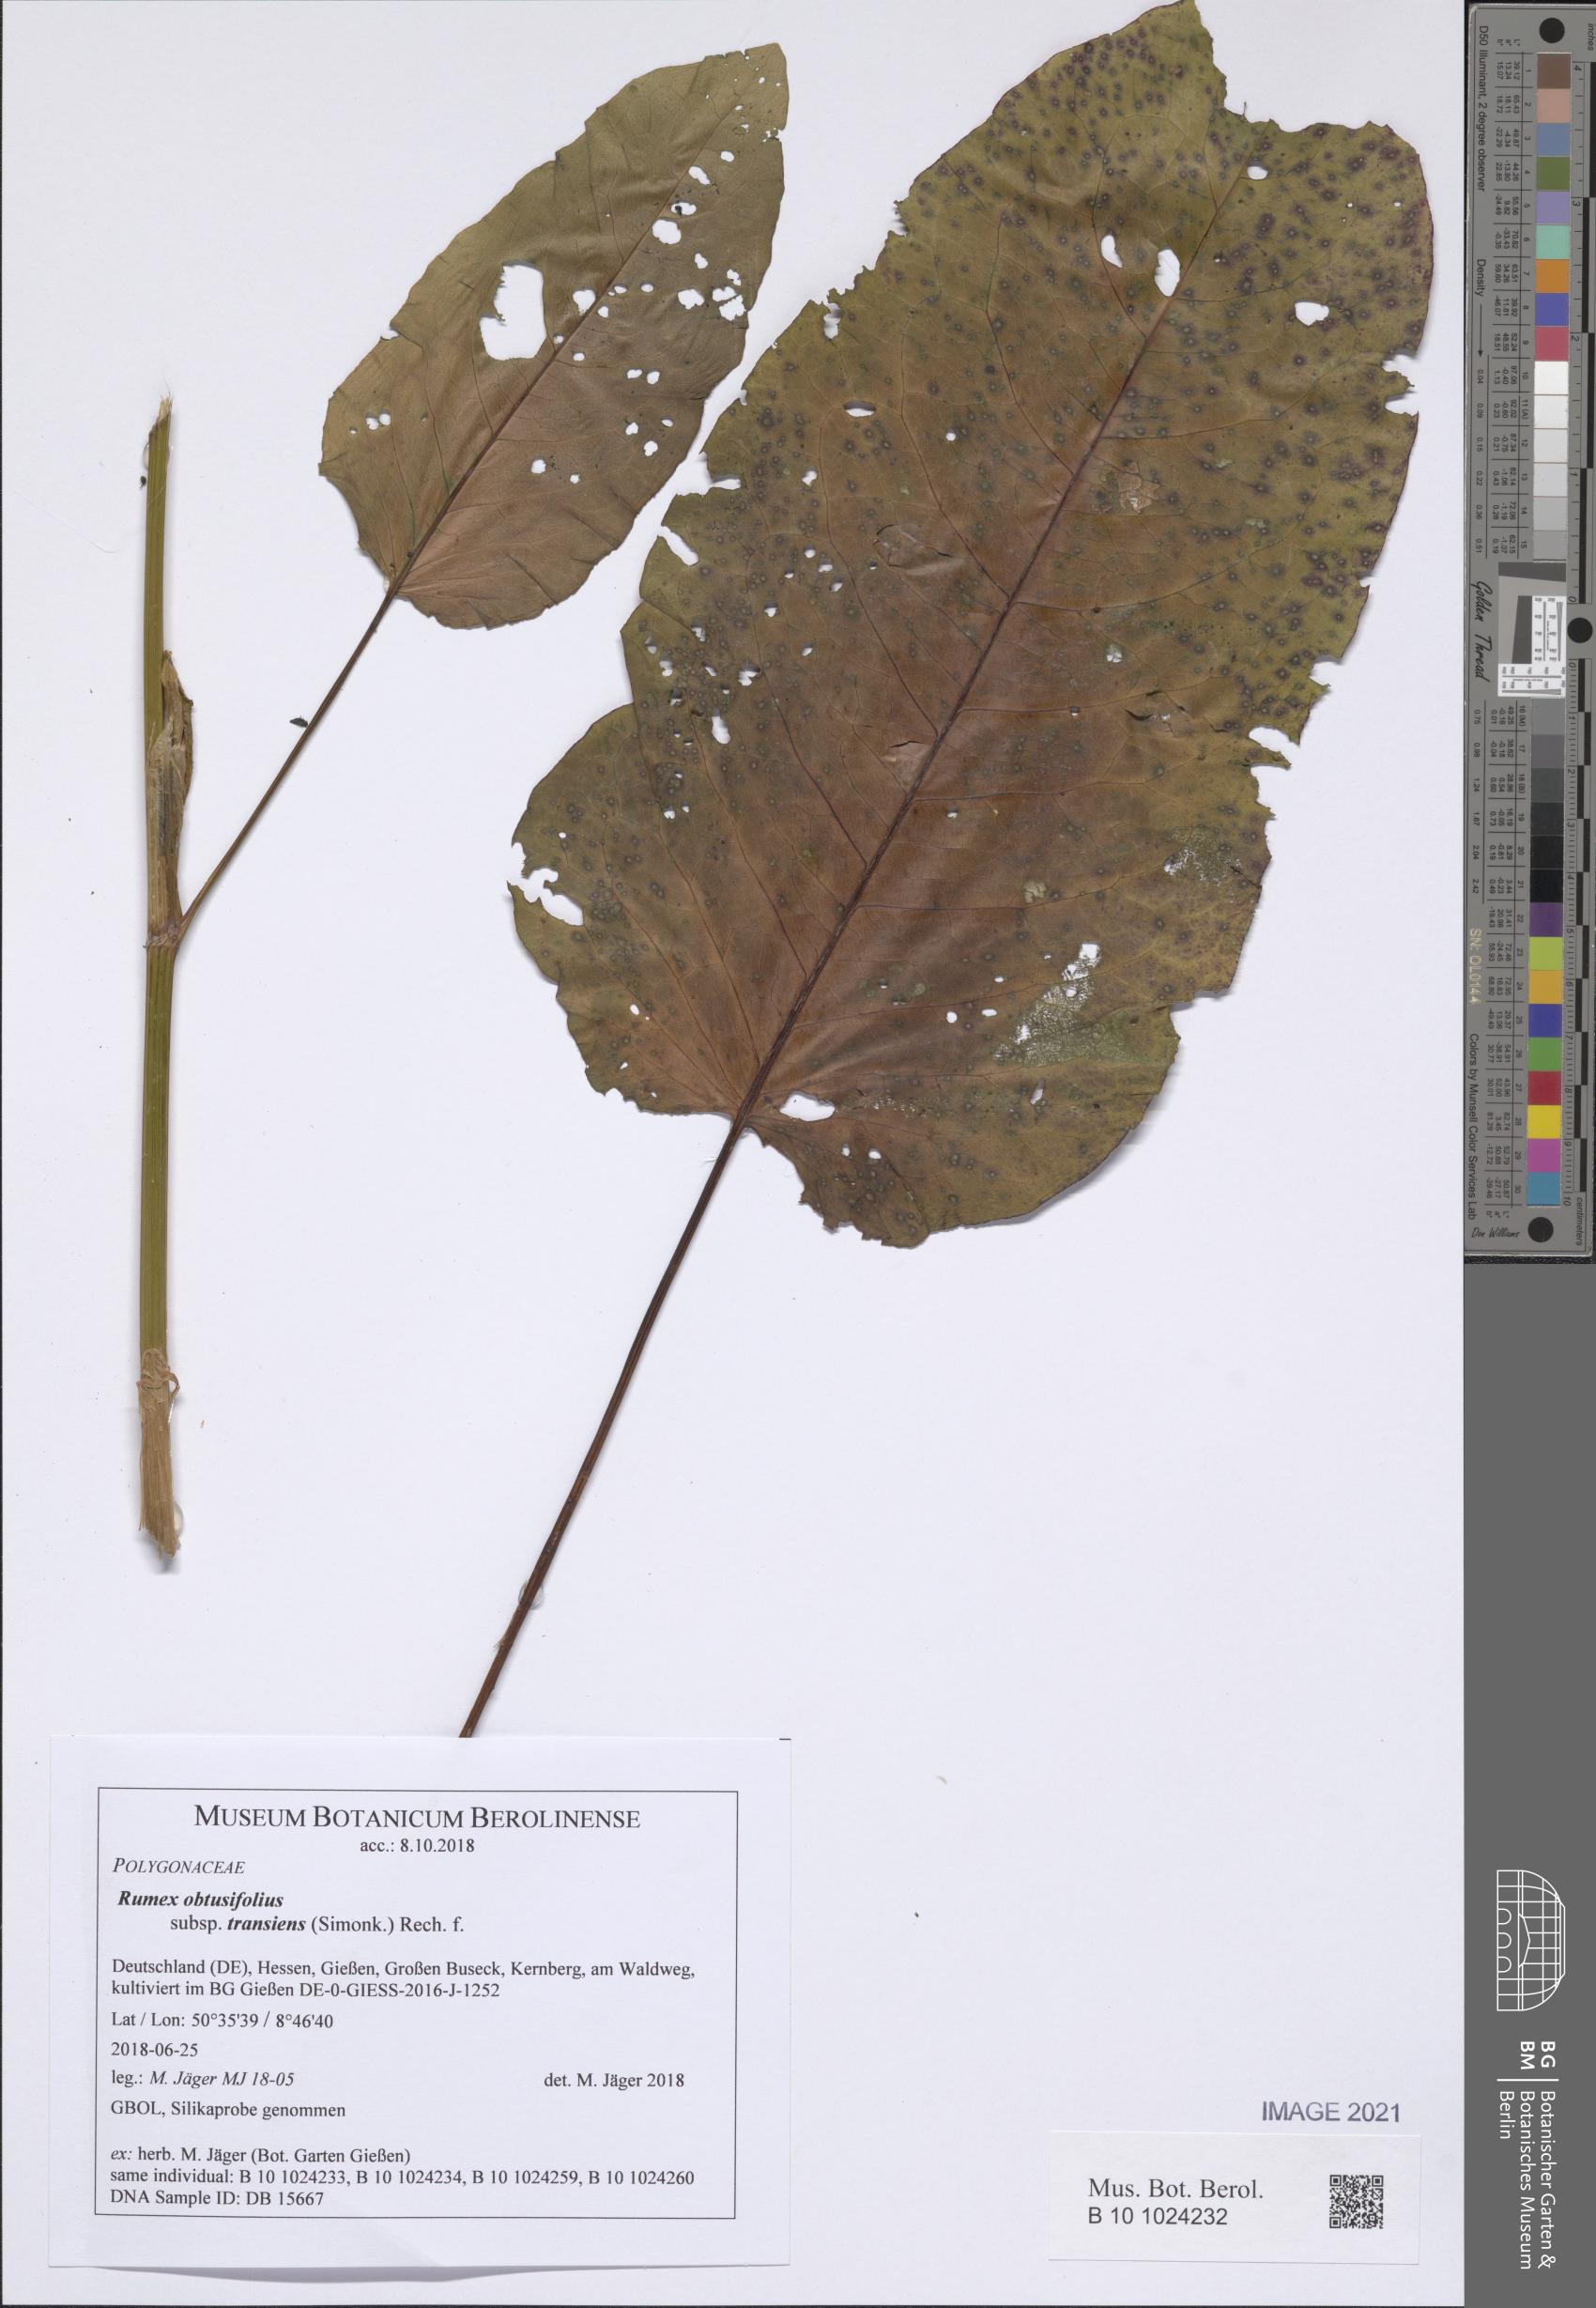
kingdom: Plantae
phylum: Tracheophyta
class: Magnoliopsida
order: Caryophyllales
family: Polygonaceae
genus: Rumex
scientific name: Rumex obtusifolius
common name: Bitter dock
